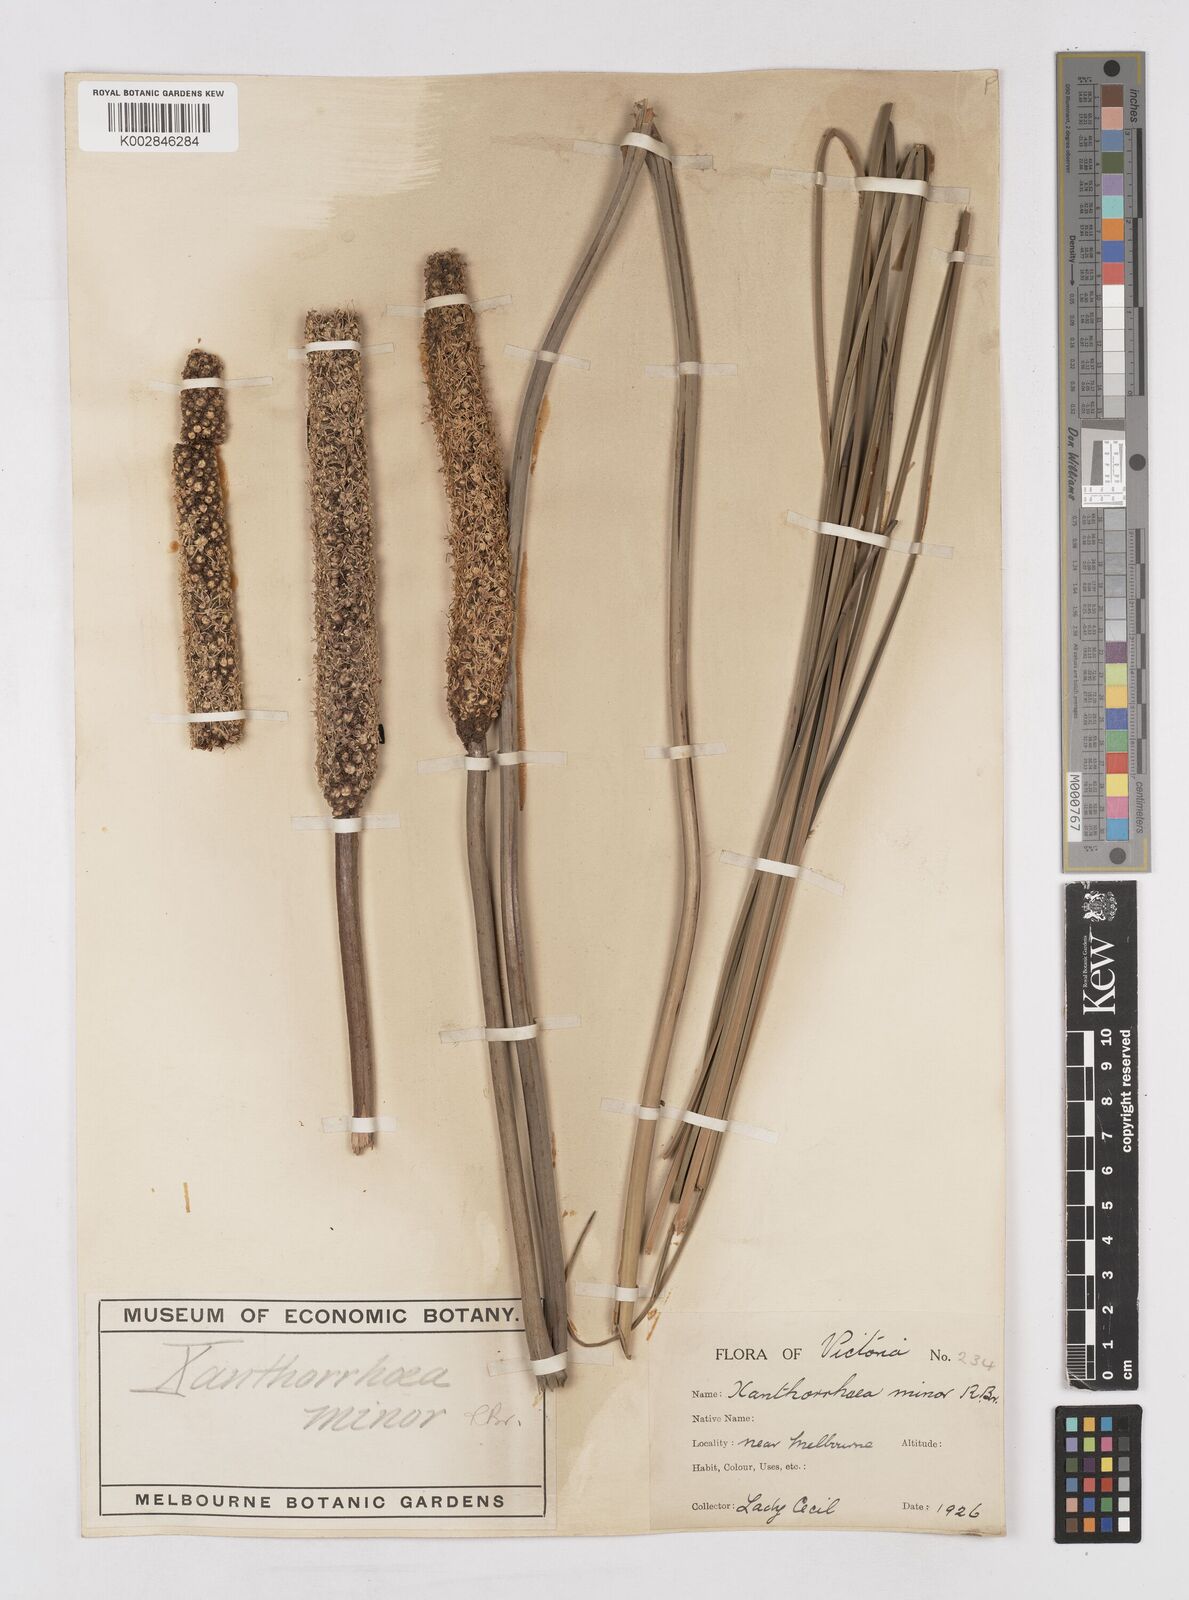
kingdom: Plantae
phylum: Tracheophyta
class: Liliopsida
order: Asparagales
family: Asphodelaceae
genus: Xanthorrhoea
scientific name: Xanthorrhoea minor
